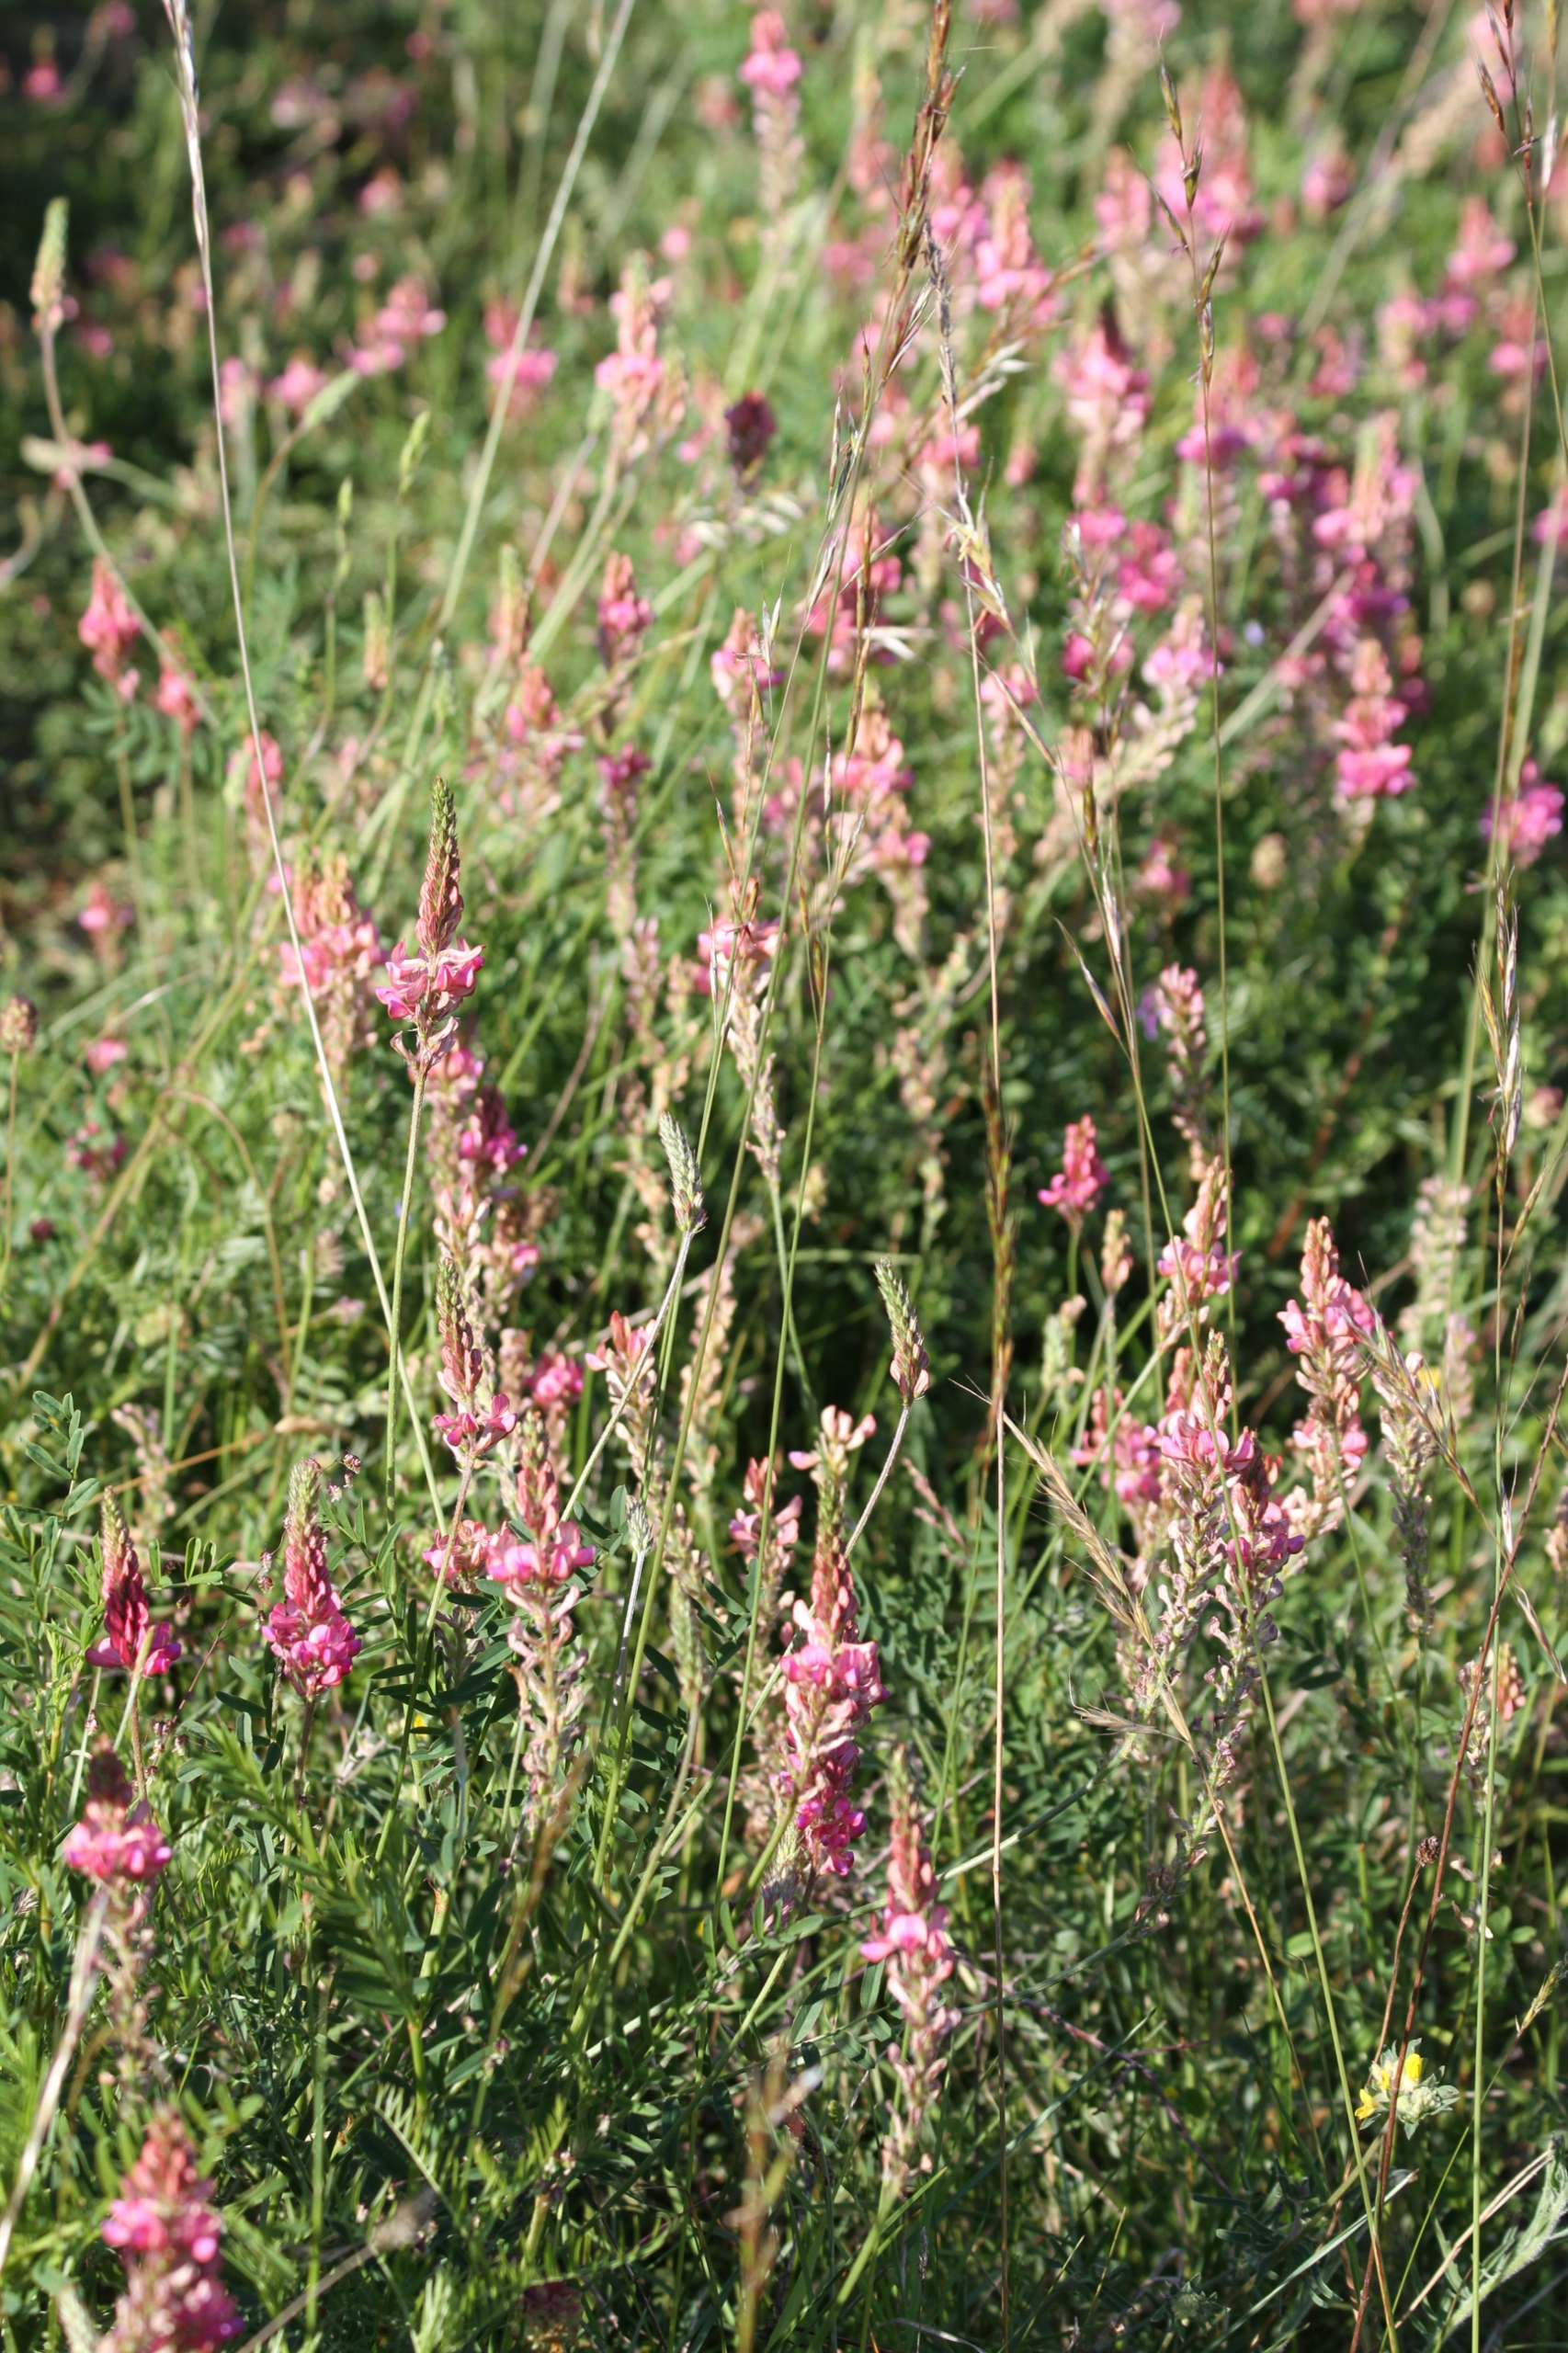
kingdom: Plantae
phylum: Tracheophyta
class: Magnoliopsida
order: Fabales
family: Fabaceae
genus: Onobrychis
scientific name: Onobrychis viciifolia
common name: Esparsette
